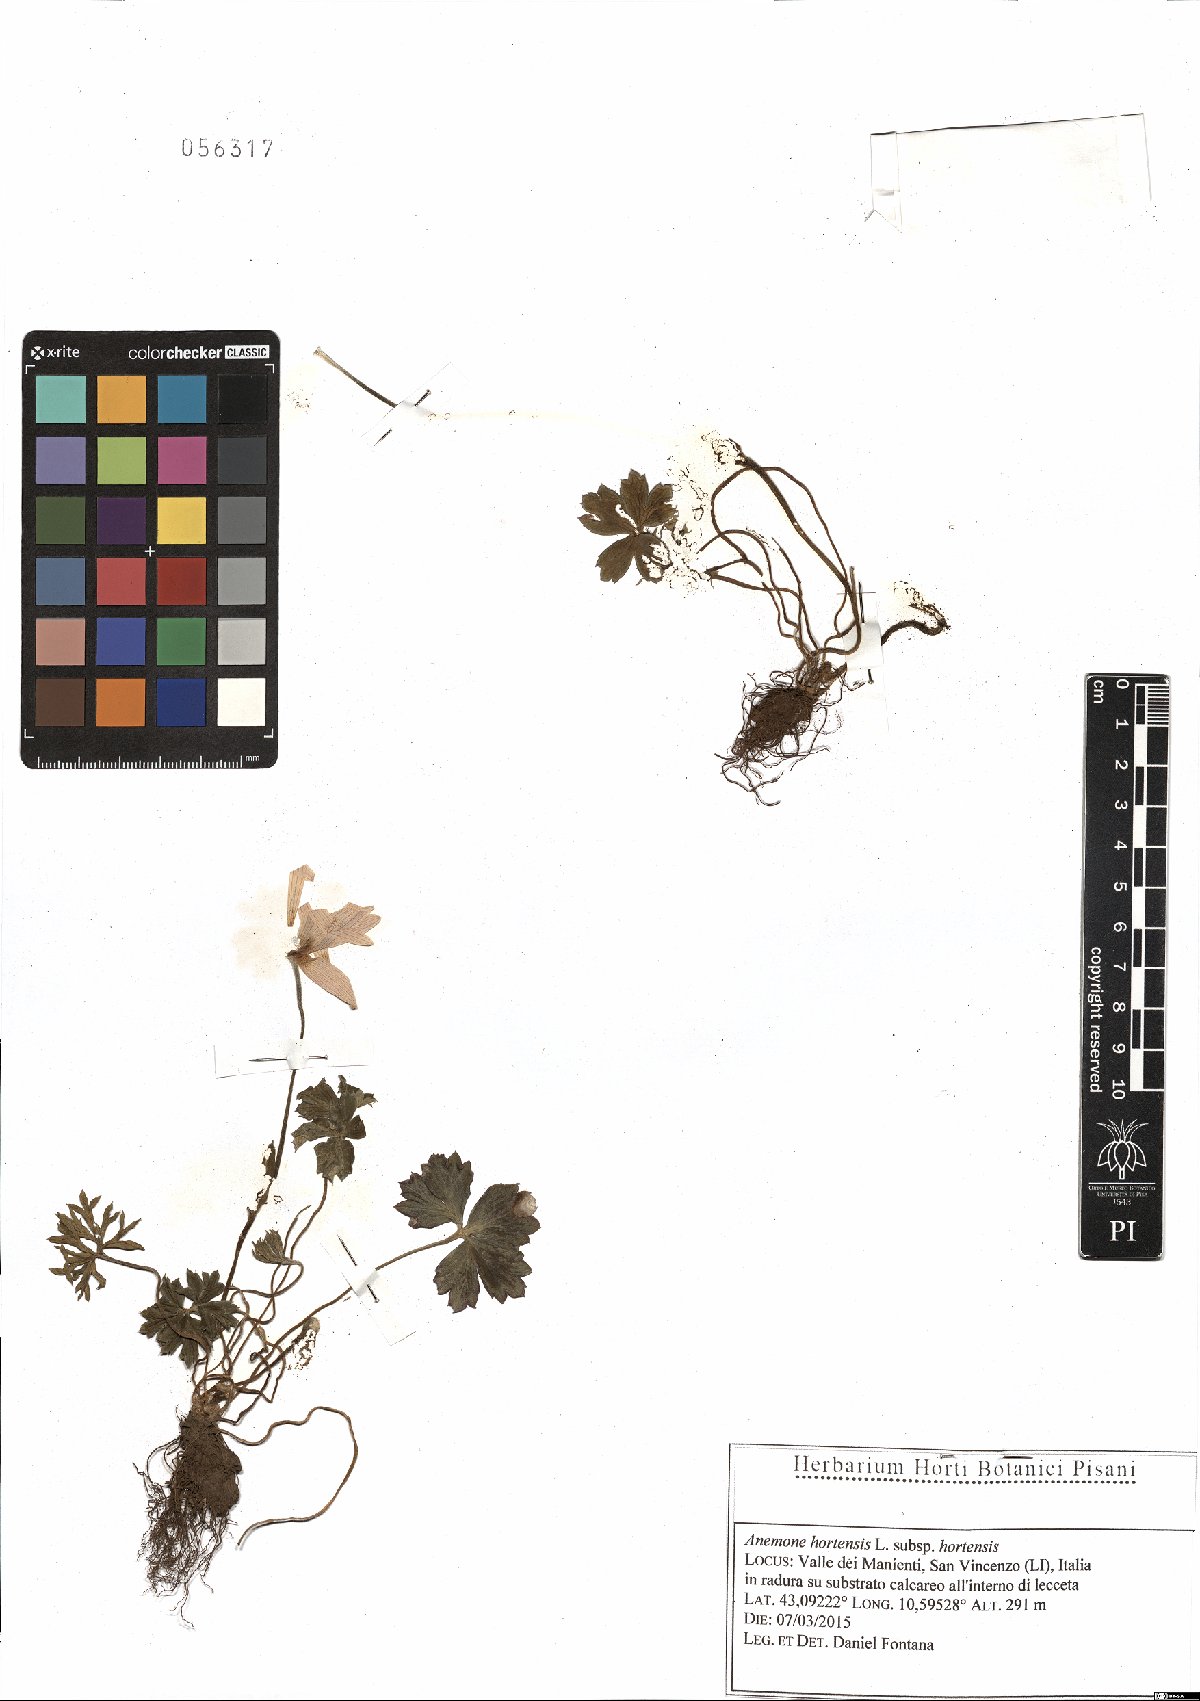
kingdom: Plantae
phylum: Tracheophyta
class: Magnoliopsida
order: Ranunculales
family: Ranunculaceae
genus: Anemone
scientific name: Anemone hortensis
